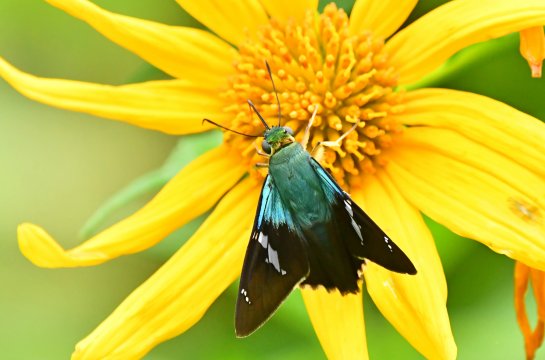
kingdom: Animalia
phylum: Arthropoda
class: Insecta
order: Lepidoptera
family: Hesperiidae
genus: Astraptes
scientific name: Astraptes fulgerator
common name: Two-barred Flasher
